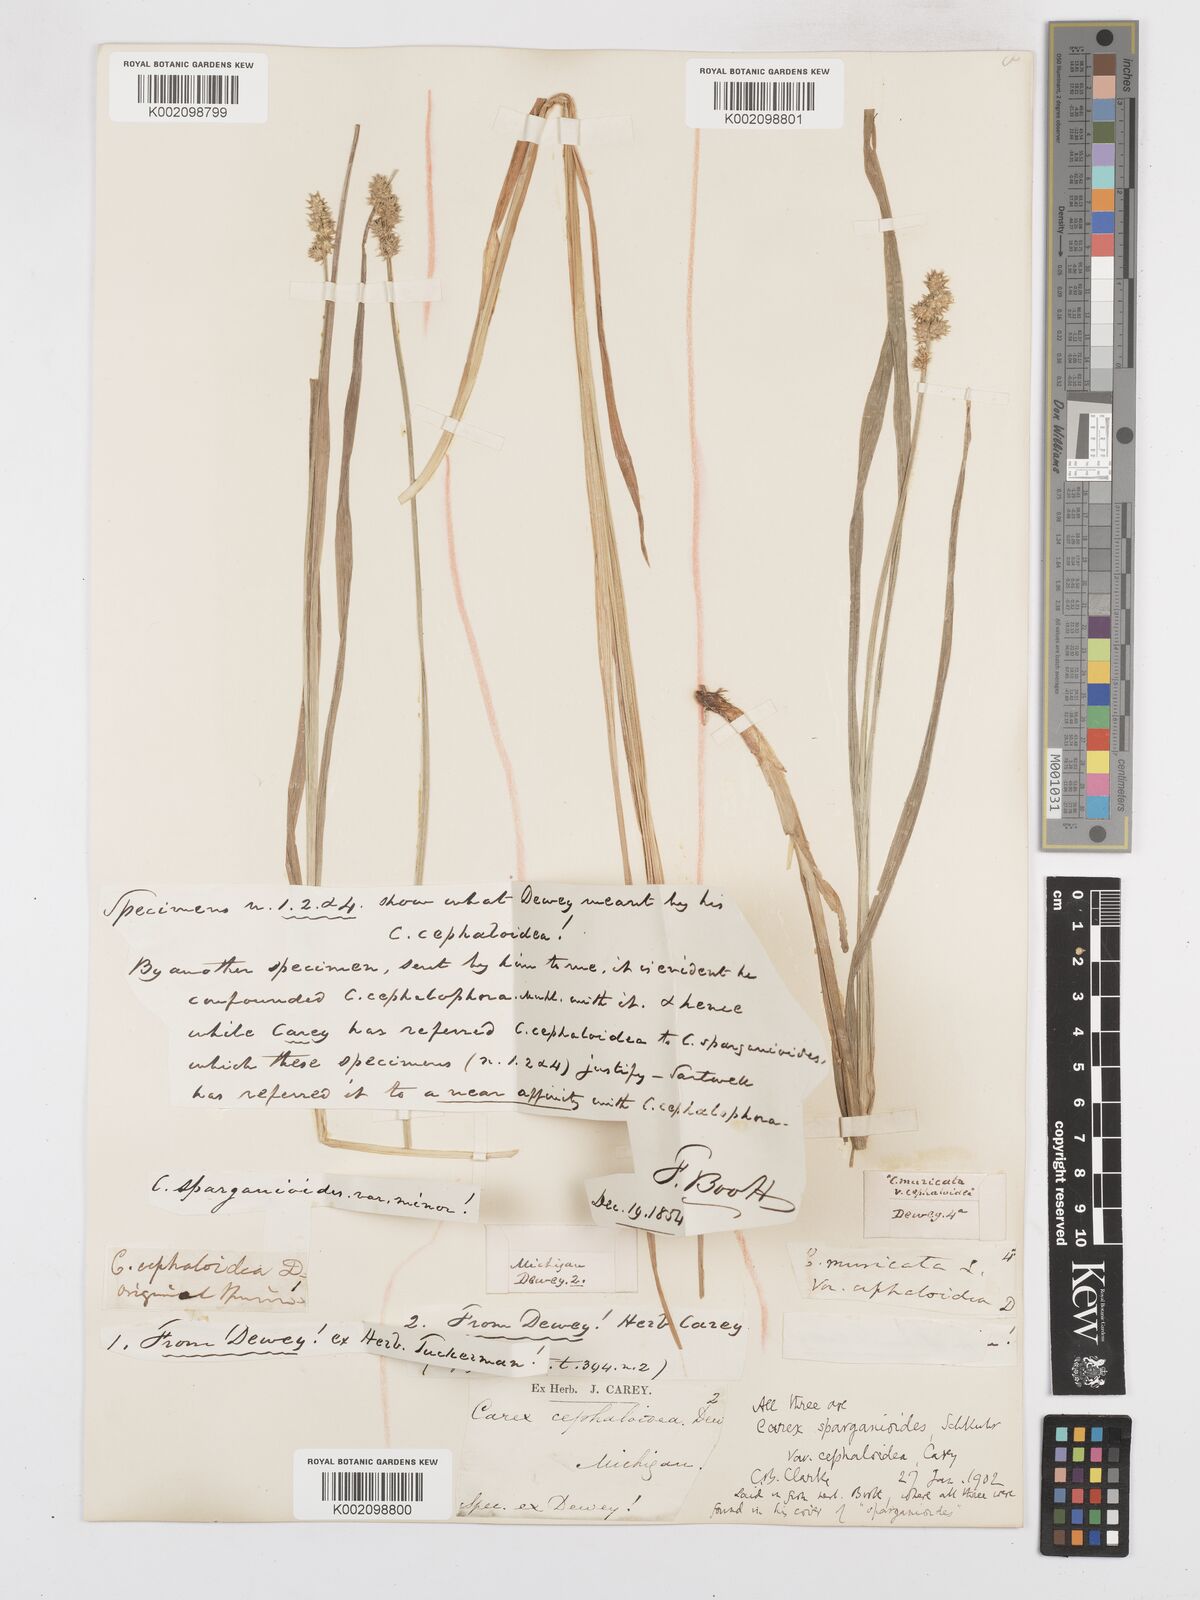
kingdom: Plantae
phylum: Tracheophyta
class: Liliopsida
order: Poales
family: Cyperaceae
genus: Carex
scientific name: Carex sparganioides
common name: Burreed sedge
